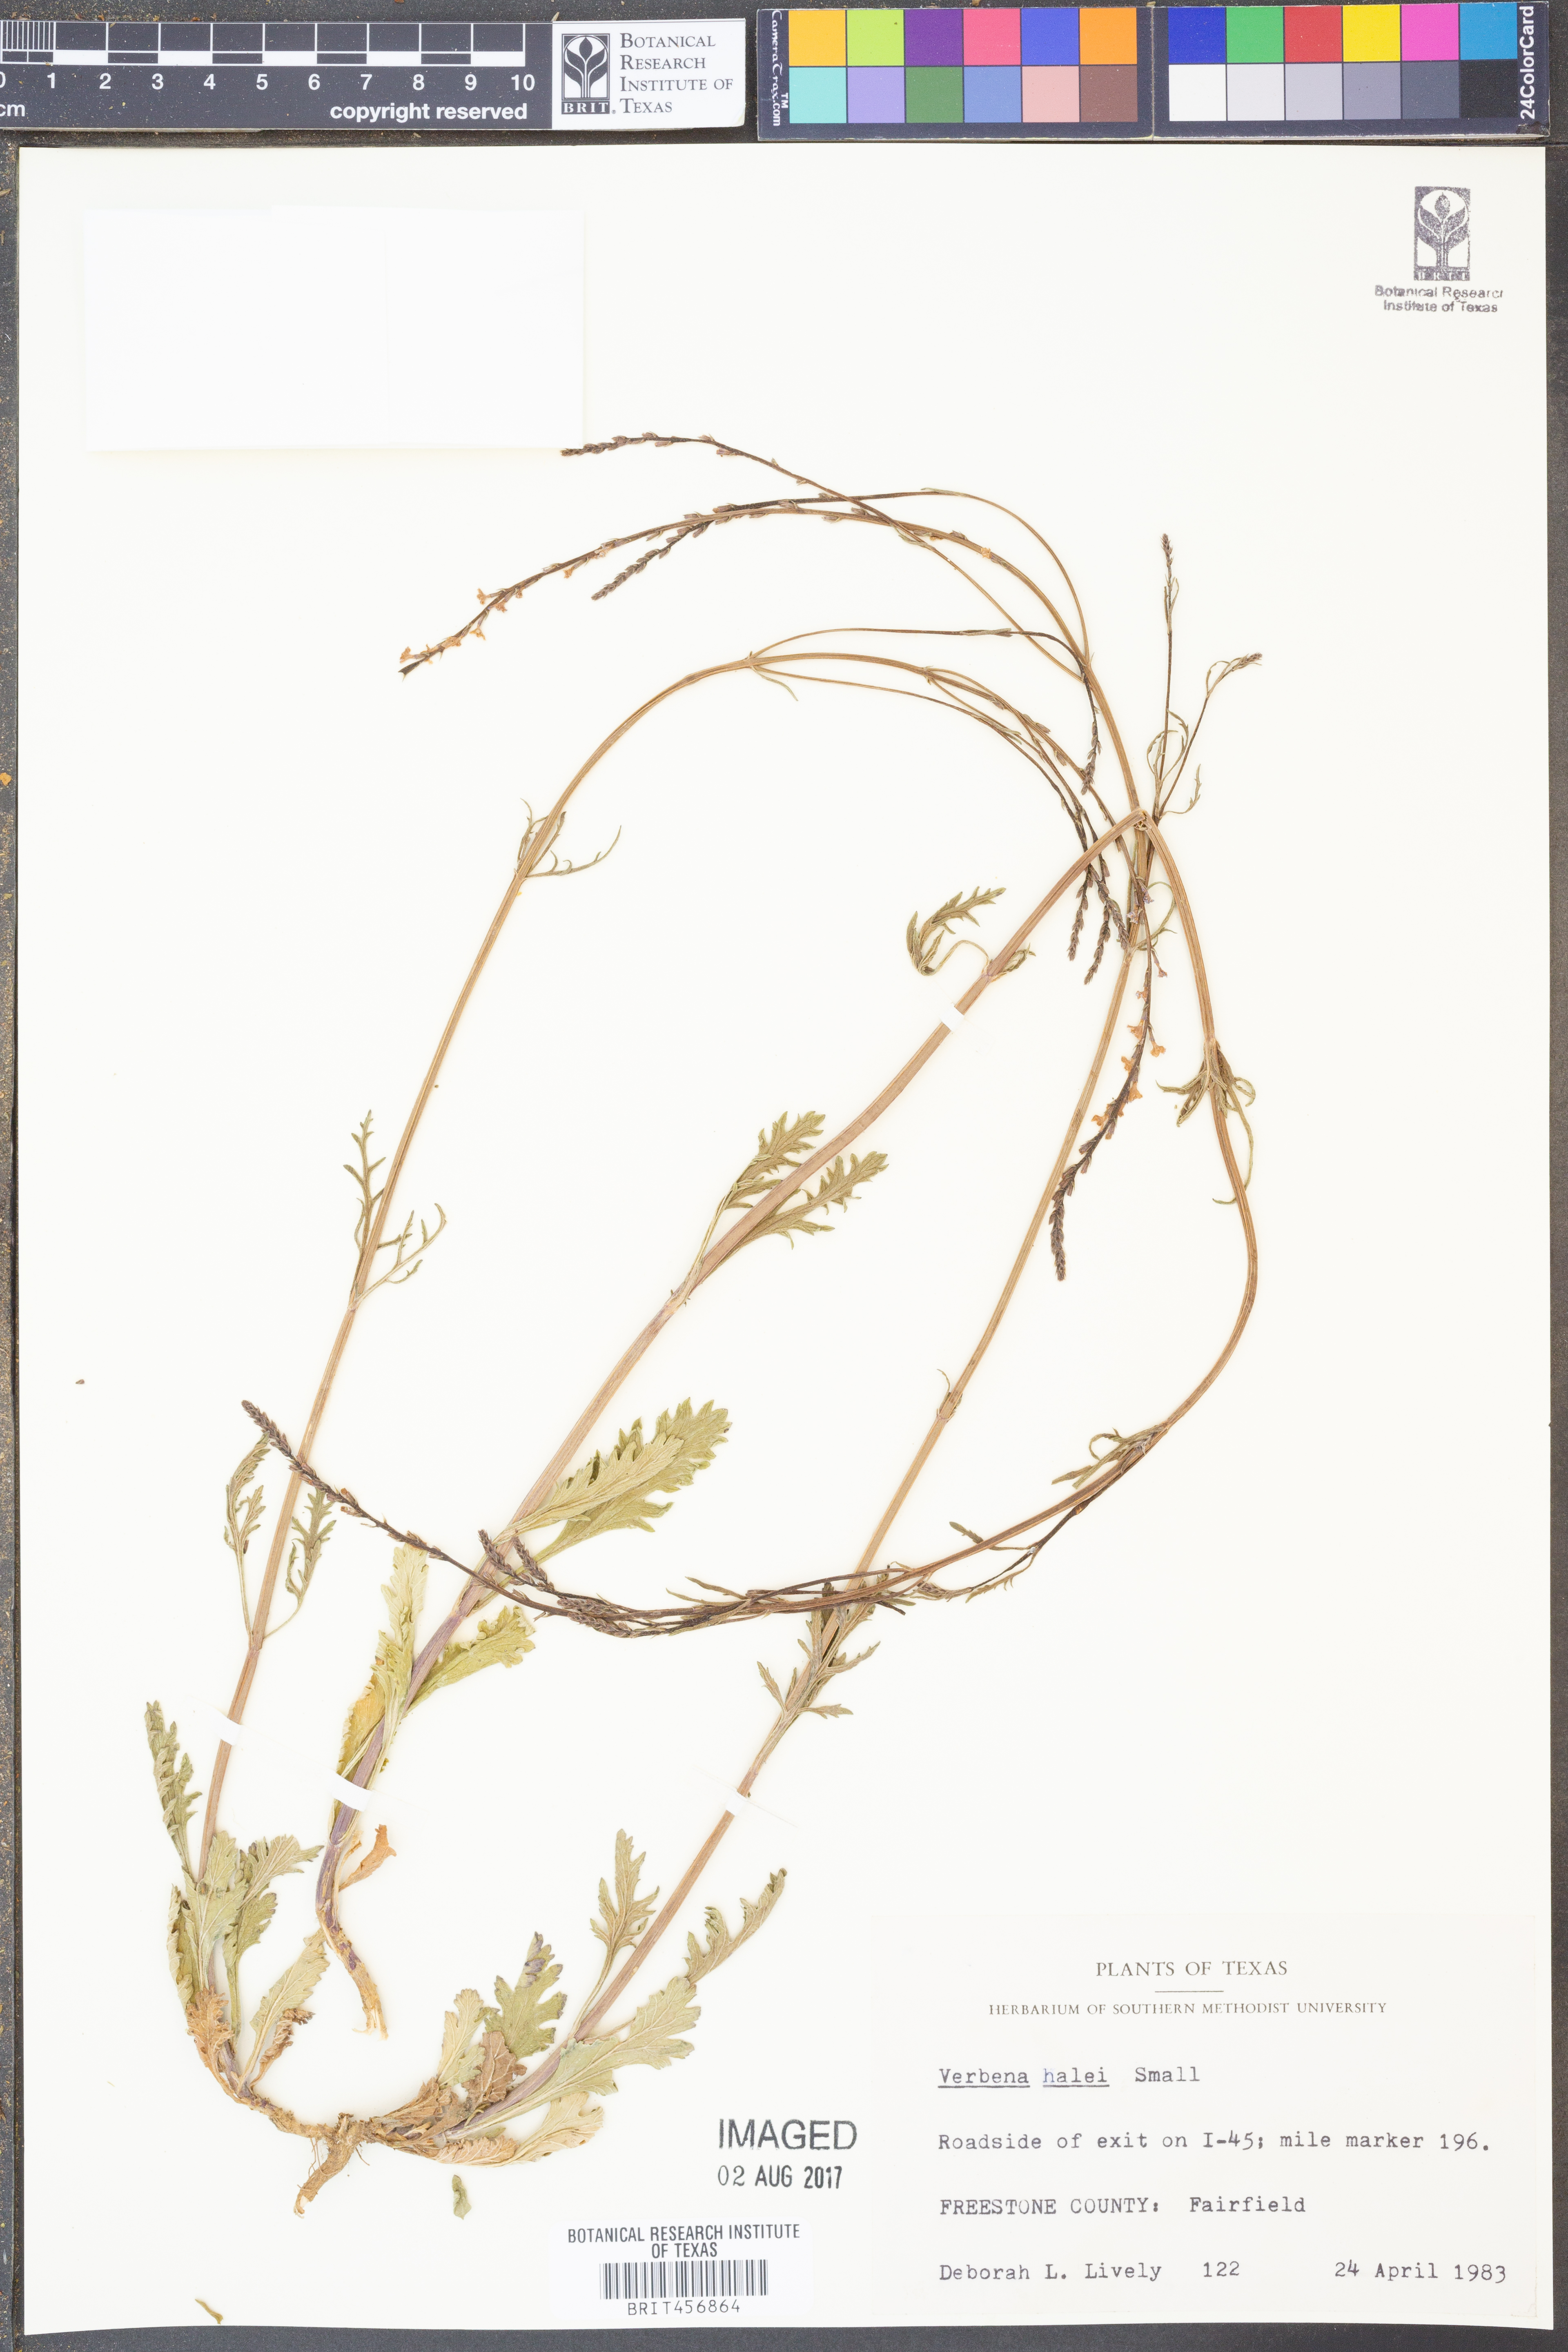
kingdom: Plantae
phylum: Tracheophyta
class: Magnoliopsida
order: Lamiales
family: Verbenaceae
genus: Verbena
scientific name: Verbena halei
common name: Texas vervain
